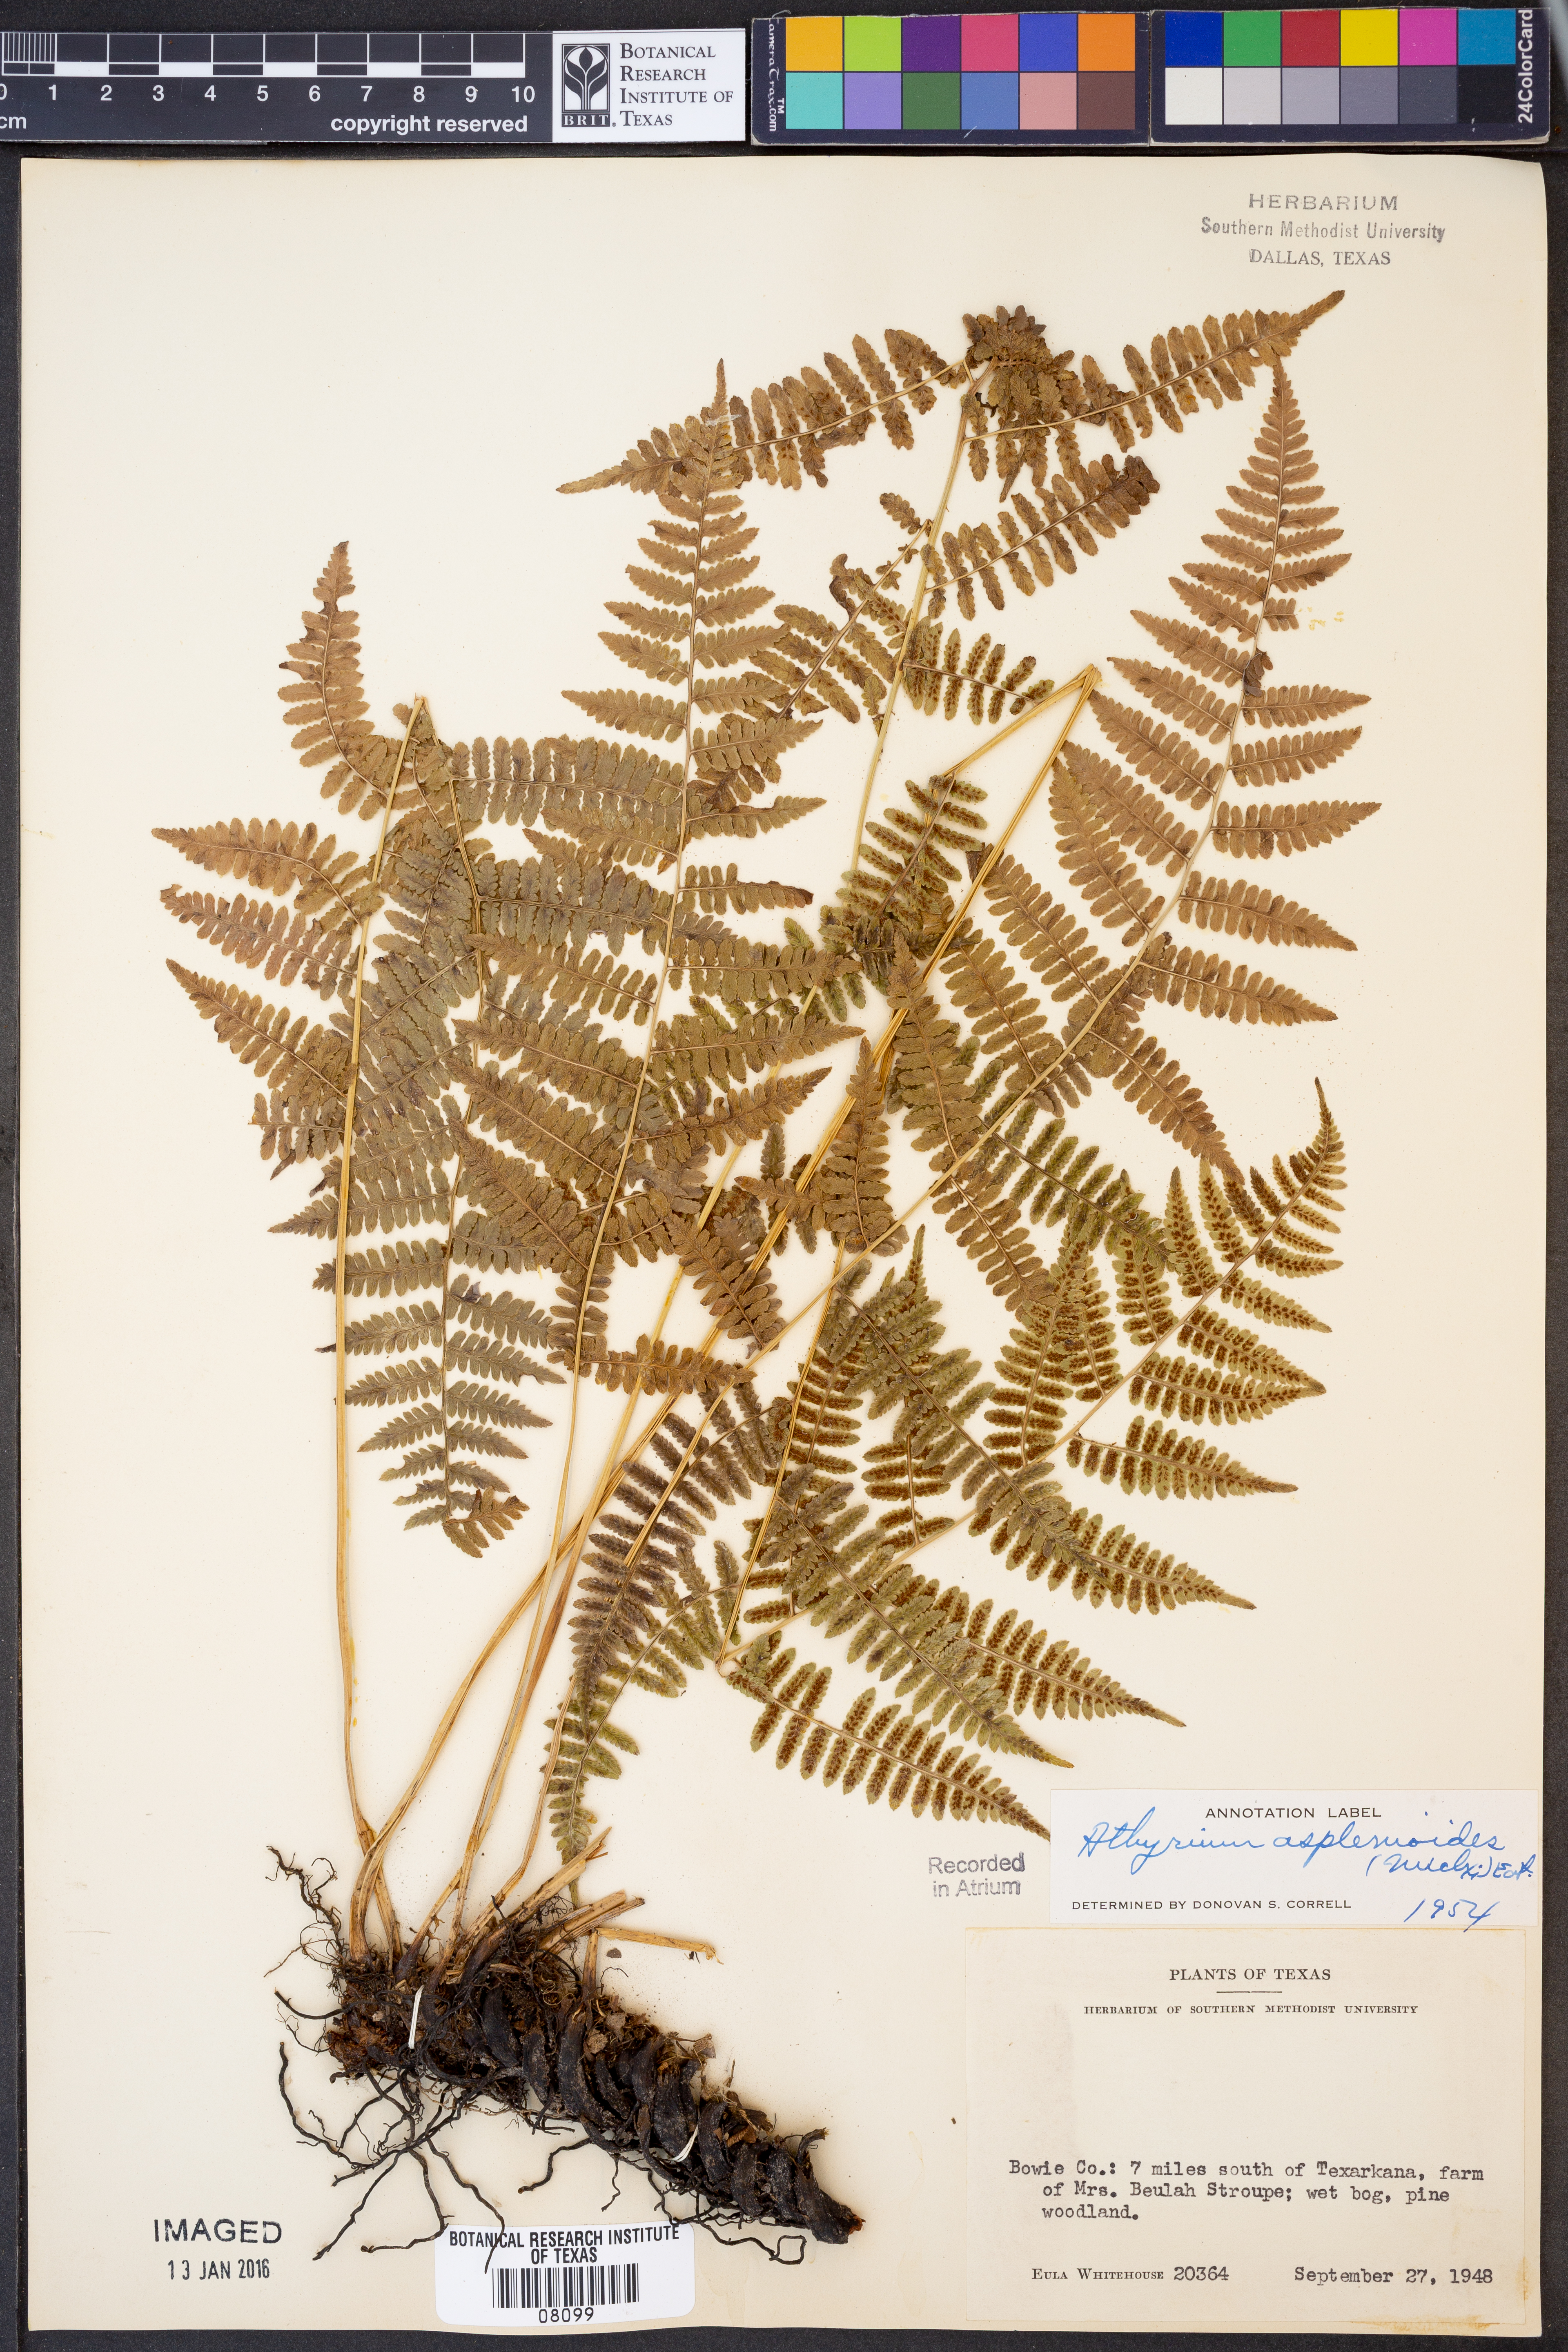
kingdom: Plantae
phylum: Tracheophyta
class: Polypodiopsida
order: Polypodiales
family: Athyriaceae
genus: Athyrium
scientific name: Athyrium asplenioides
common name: Southern lady fern
